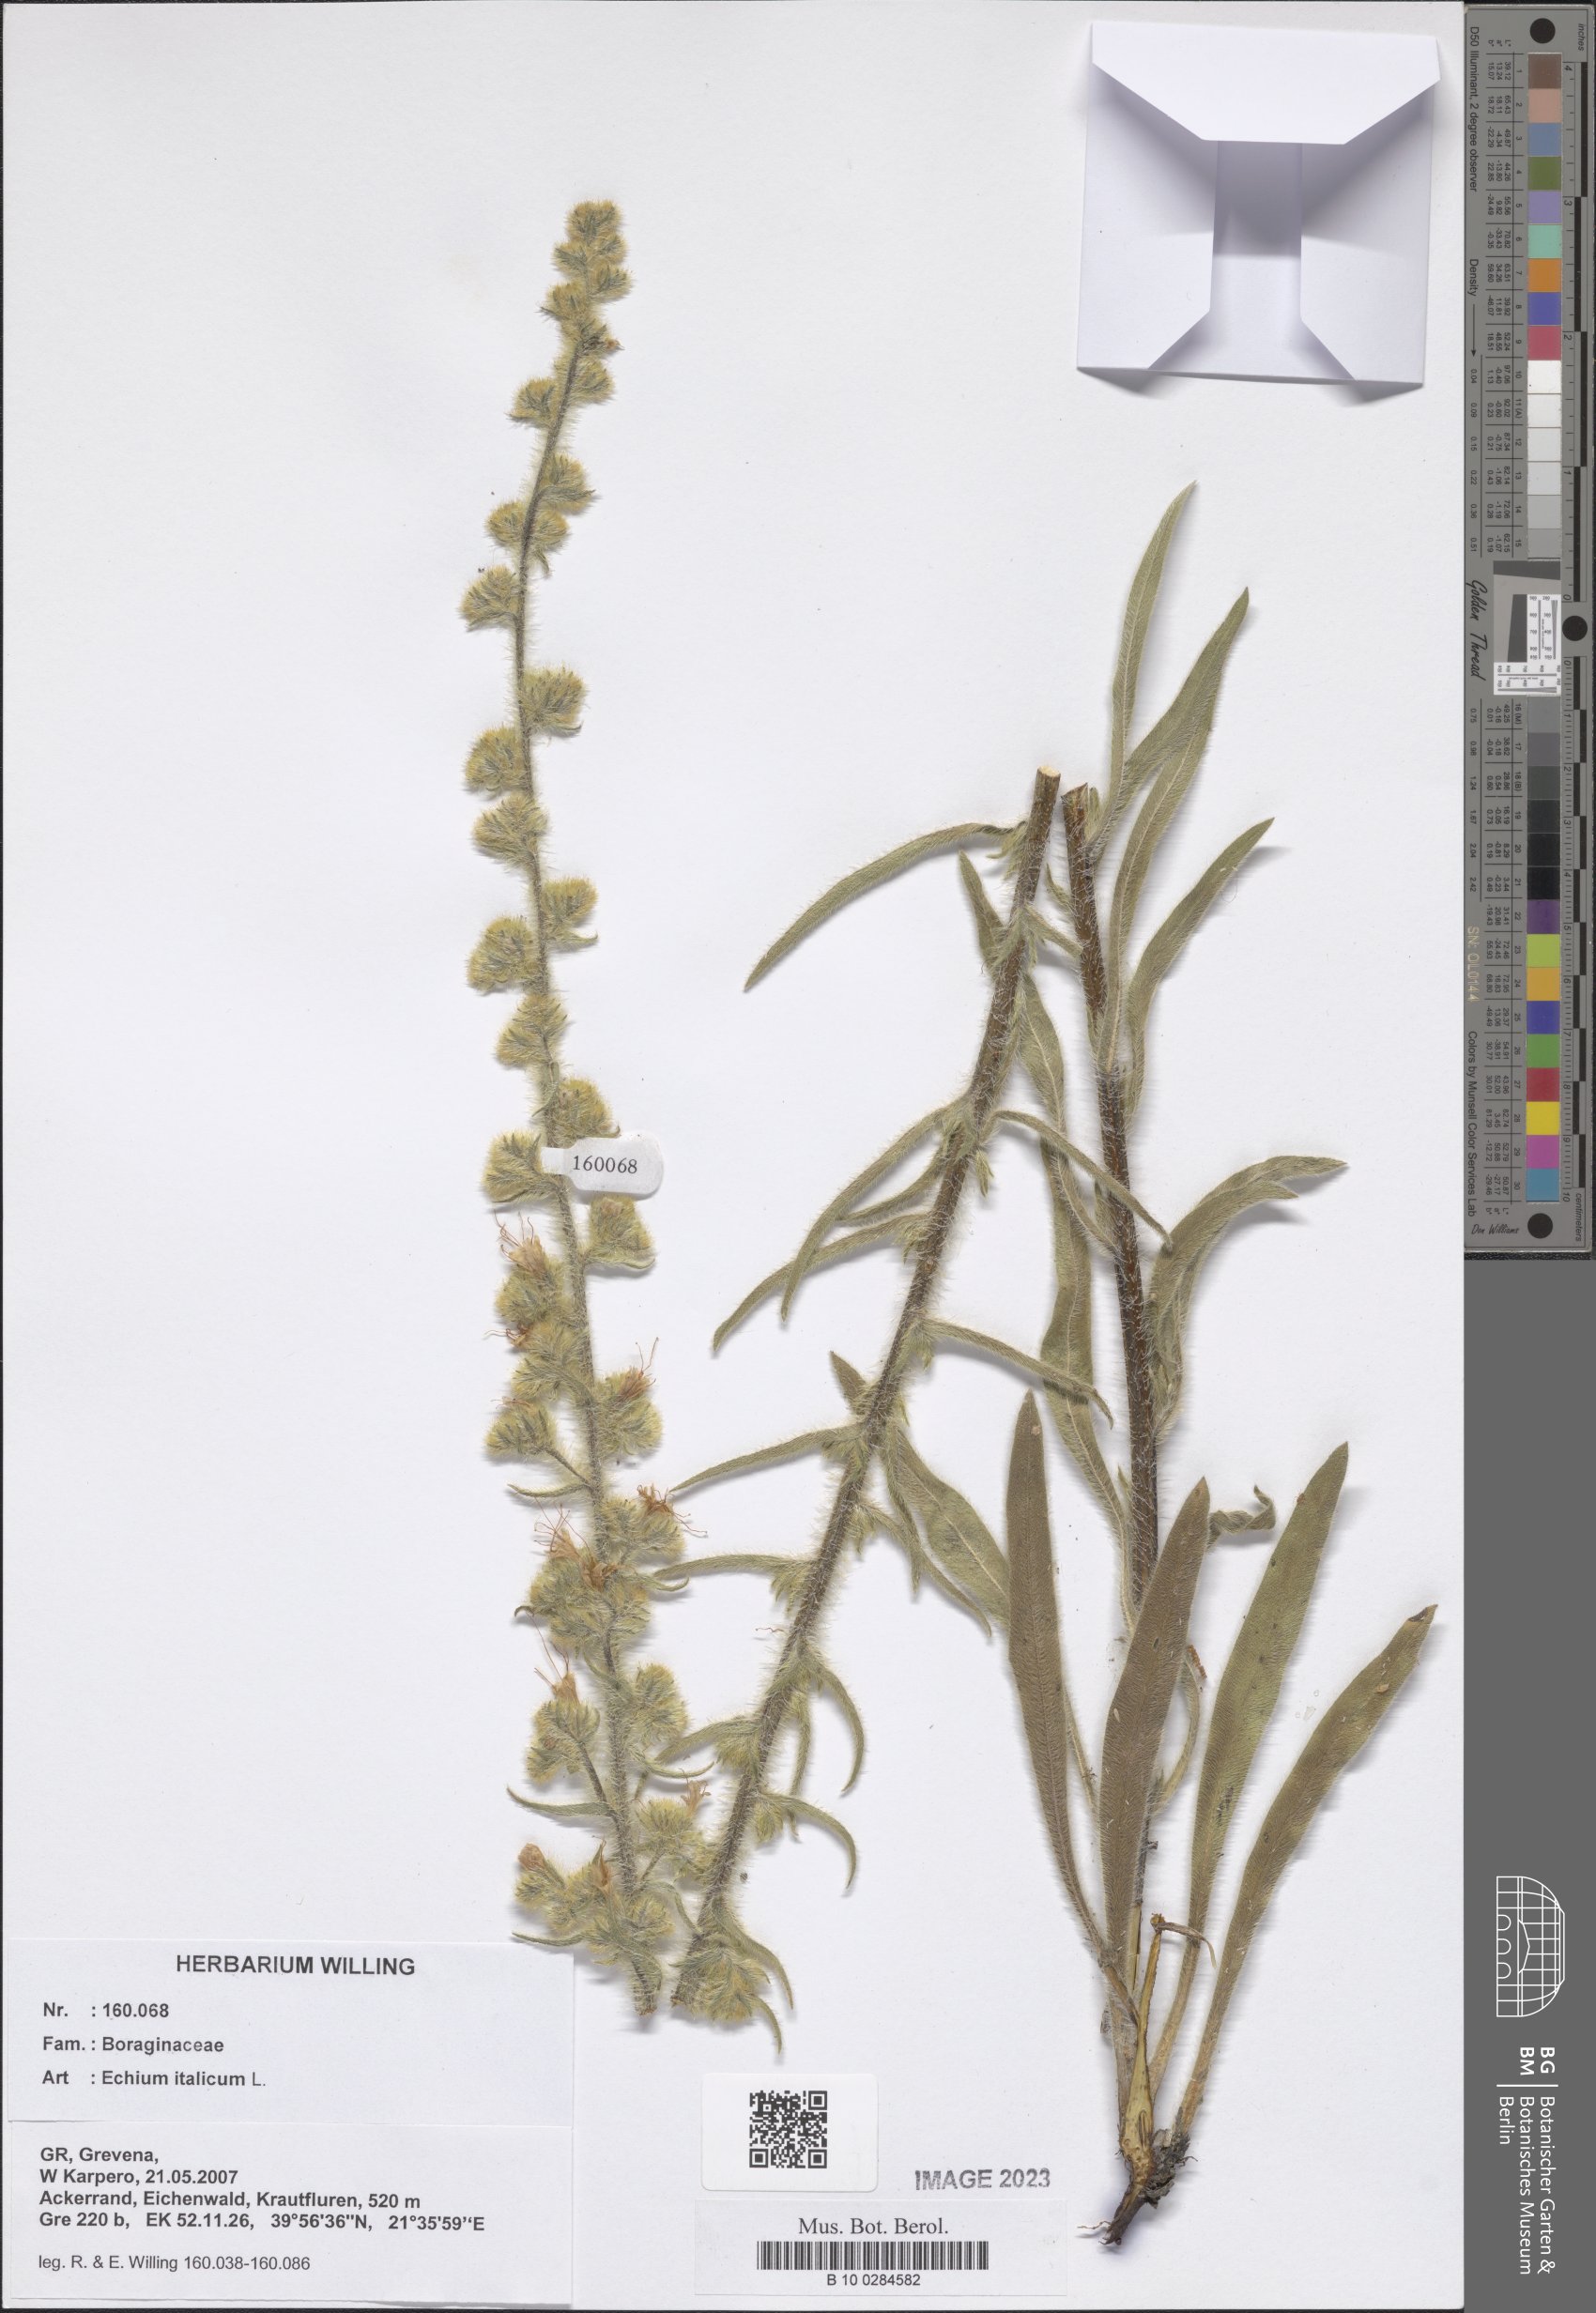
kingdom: Plantae
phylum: Tracheophyta
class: Magnoliopsida
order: Boraginales
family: Boraginaceae
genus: Echium
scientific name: Echium italicum
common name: Italian viper's bugloss
